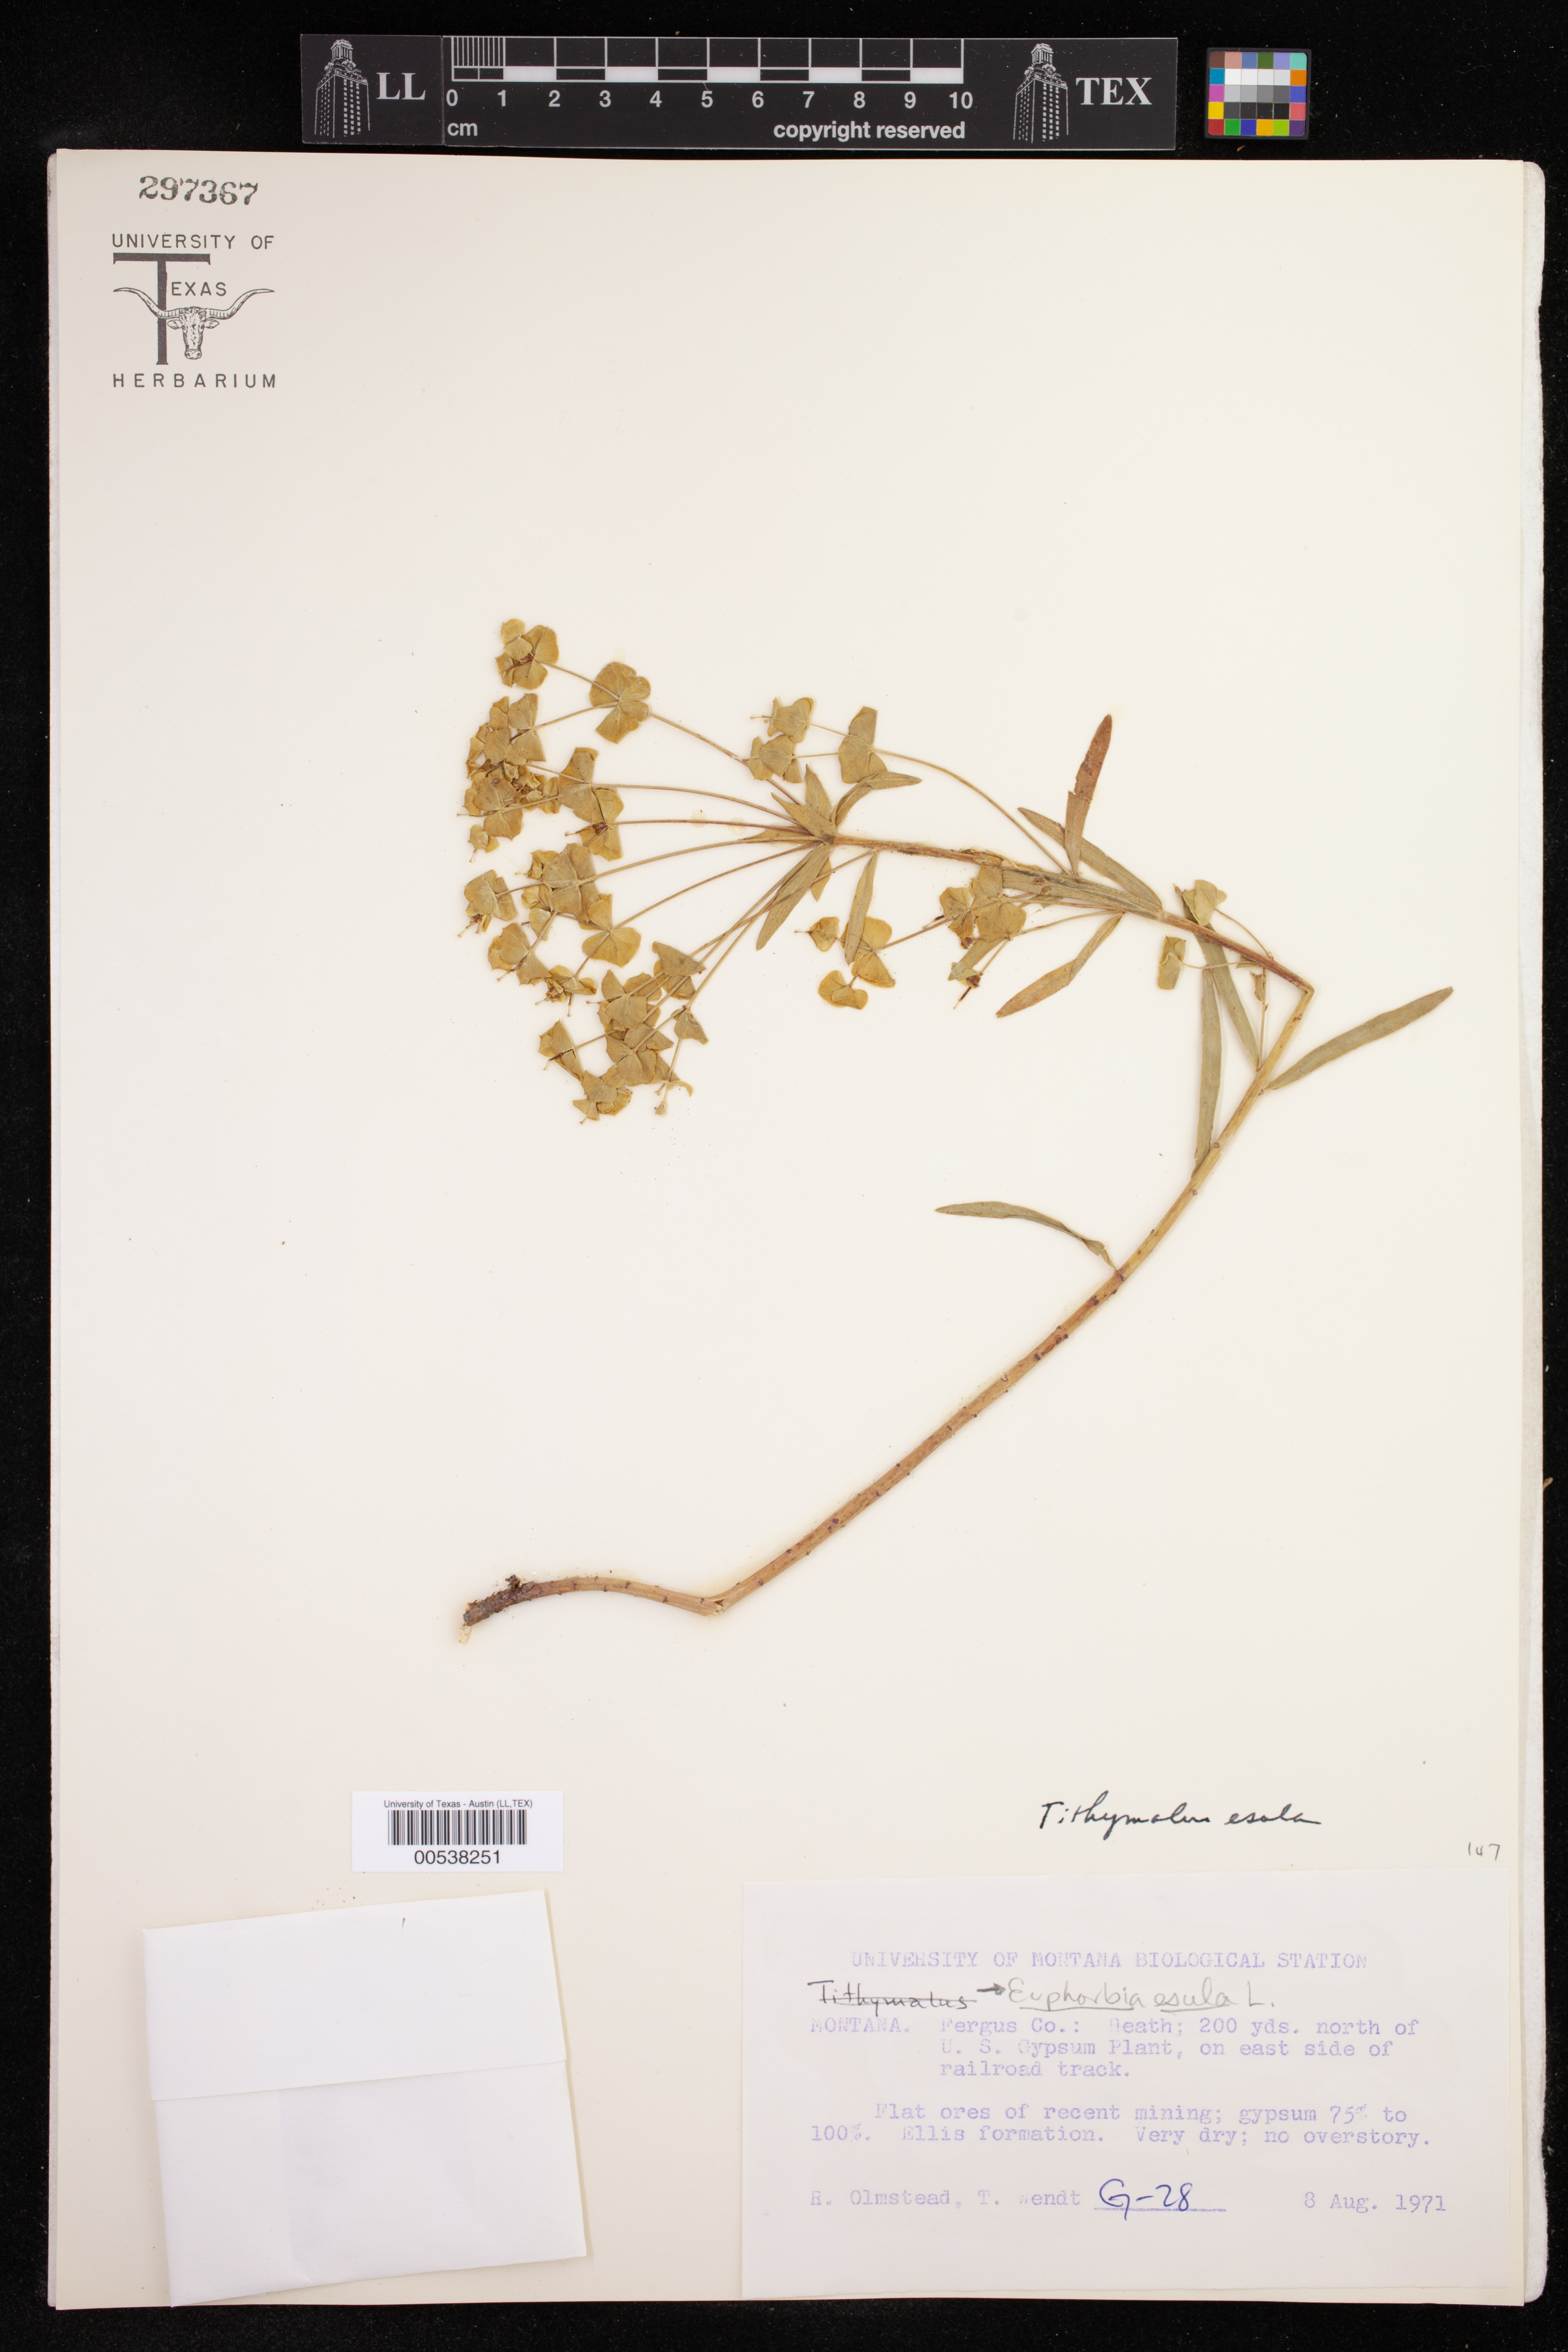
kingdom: Plantae
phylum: Tracheophyta
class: Magnoliopsida
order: Malpighiales
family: Euphorbiaceae
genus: Euphorbia
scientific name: Euphorbia esula
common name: Leafy spurge
